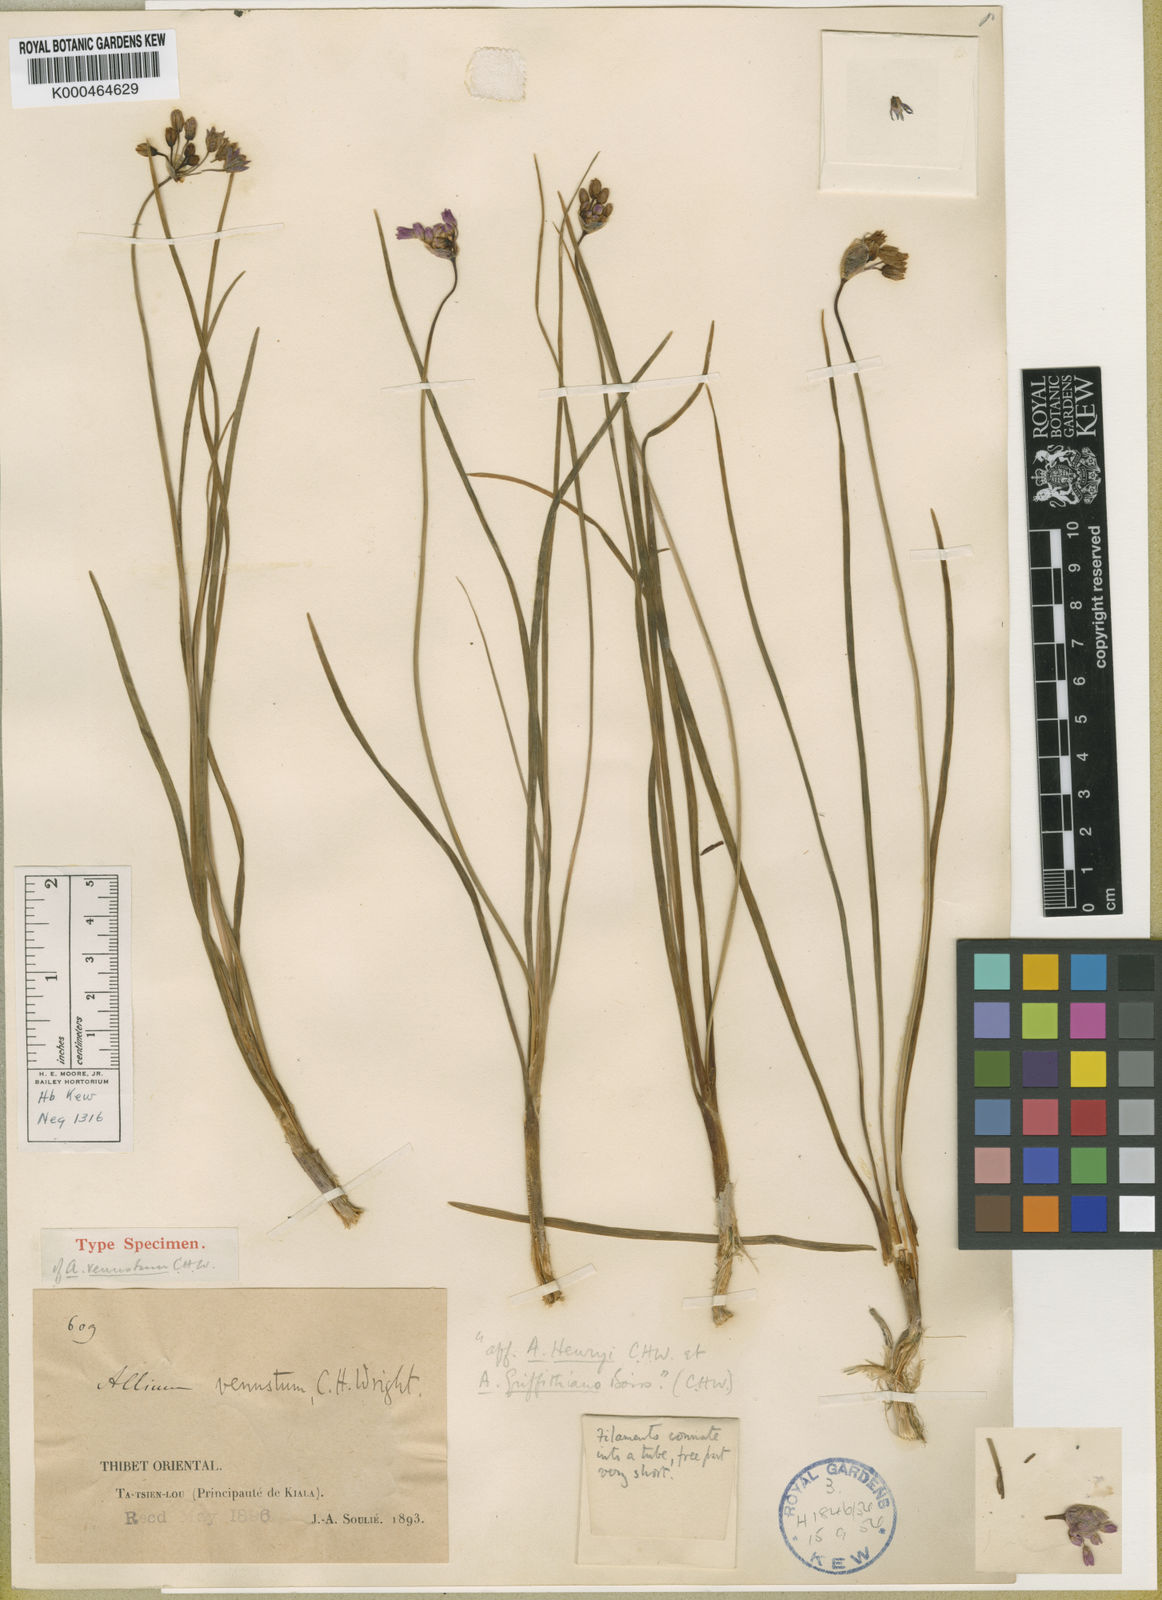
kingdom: Plantae
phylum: Tracheophyta
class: Liliopsida
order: Asparagales
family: Amaryllidaceae
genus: Allium
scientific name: Allium cyathophorum
